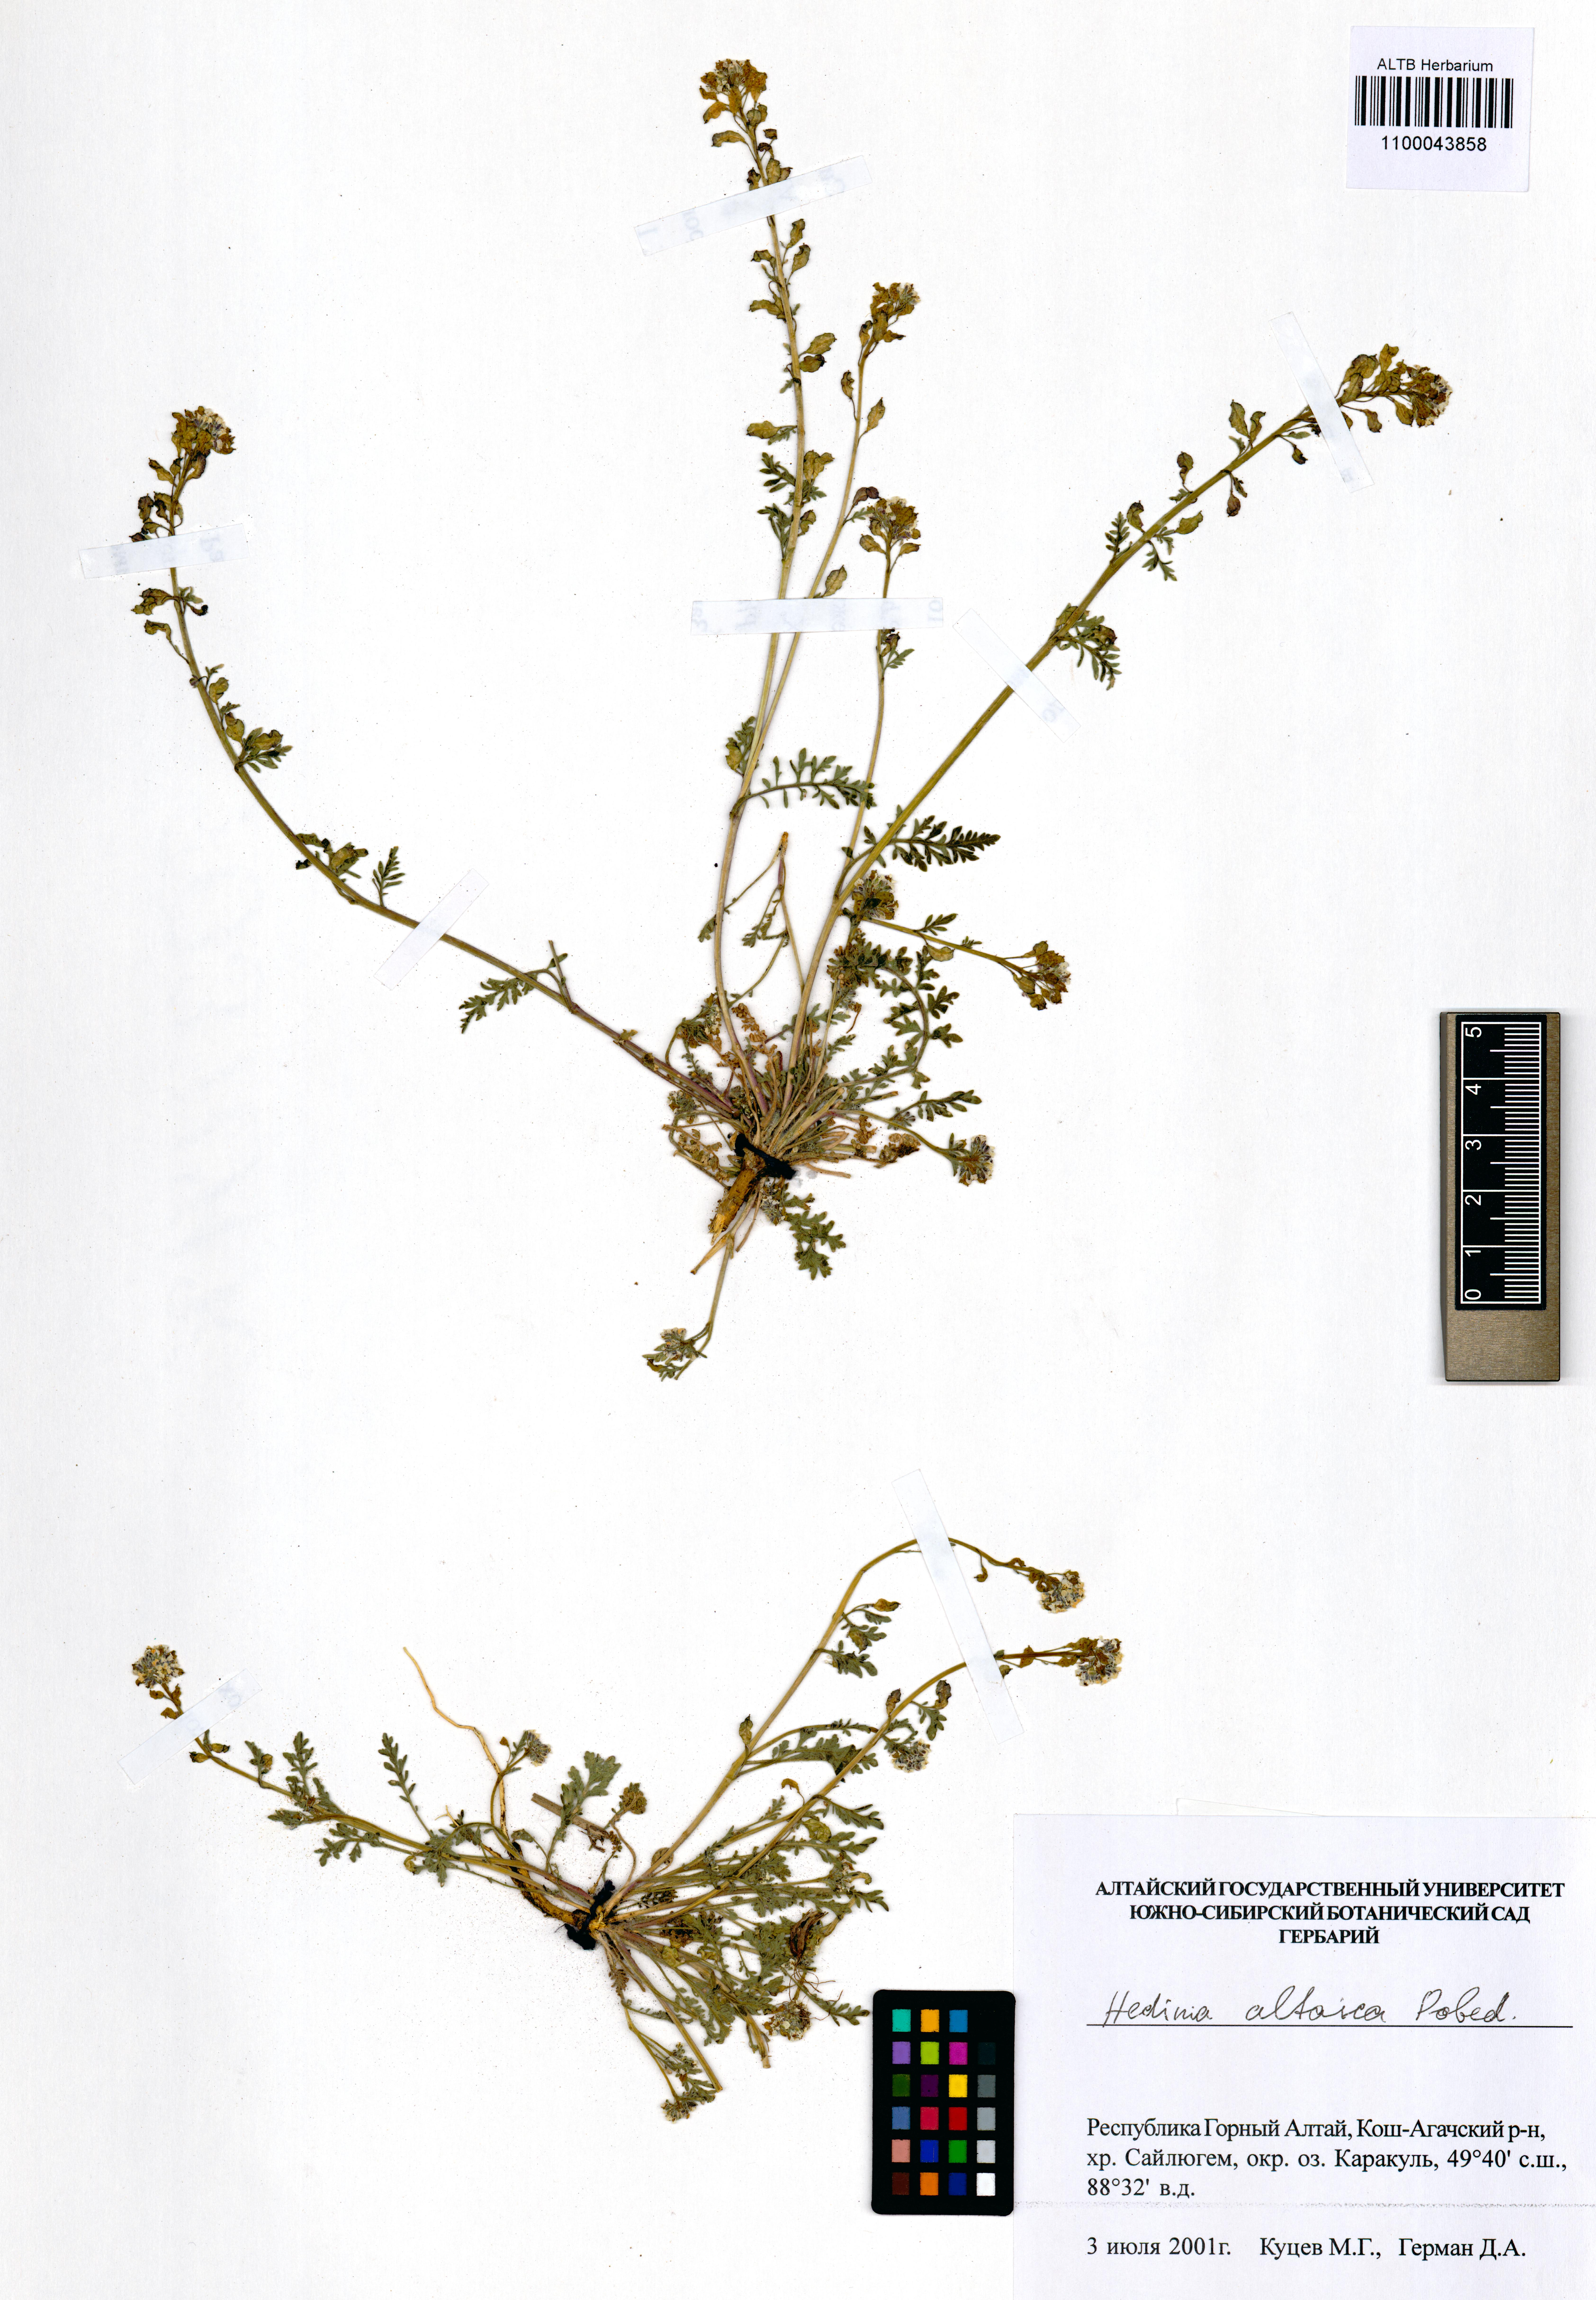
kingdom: Plantae
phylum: Tracheophyta
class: Liliopsida
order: Poales
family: Poaceae
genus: Agrostis
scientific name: Agrostis gigantea
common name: Black bent
